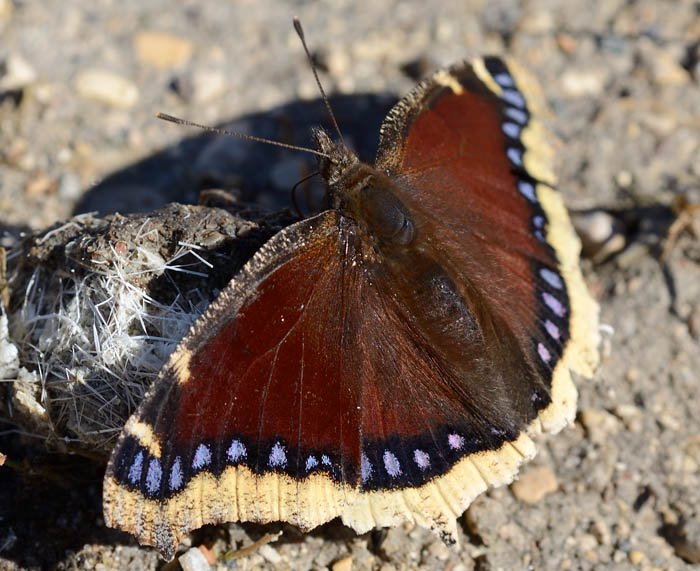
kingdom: Animalia
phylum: Arthropoda
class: Insecta
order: Lepidoptera
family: Nymphalidae
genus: Nymphalis
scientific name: Nymphalis antiopa
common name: Mourning Cloak
